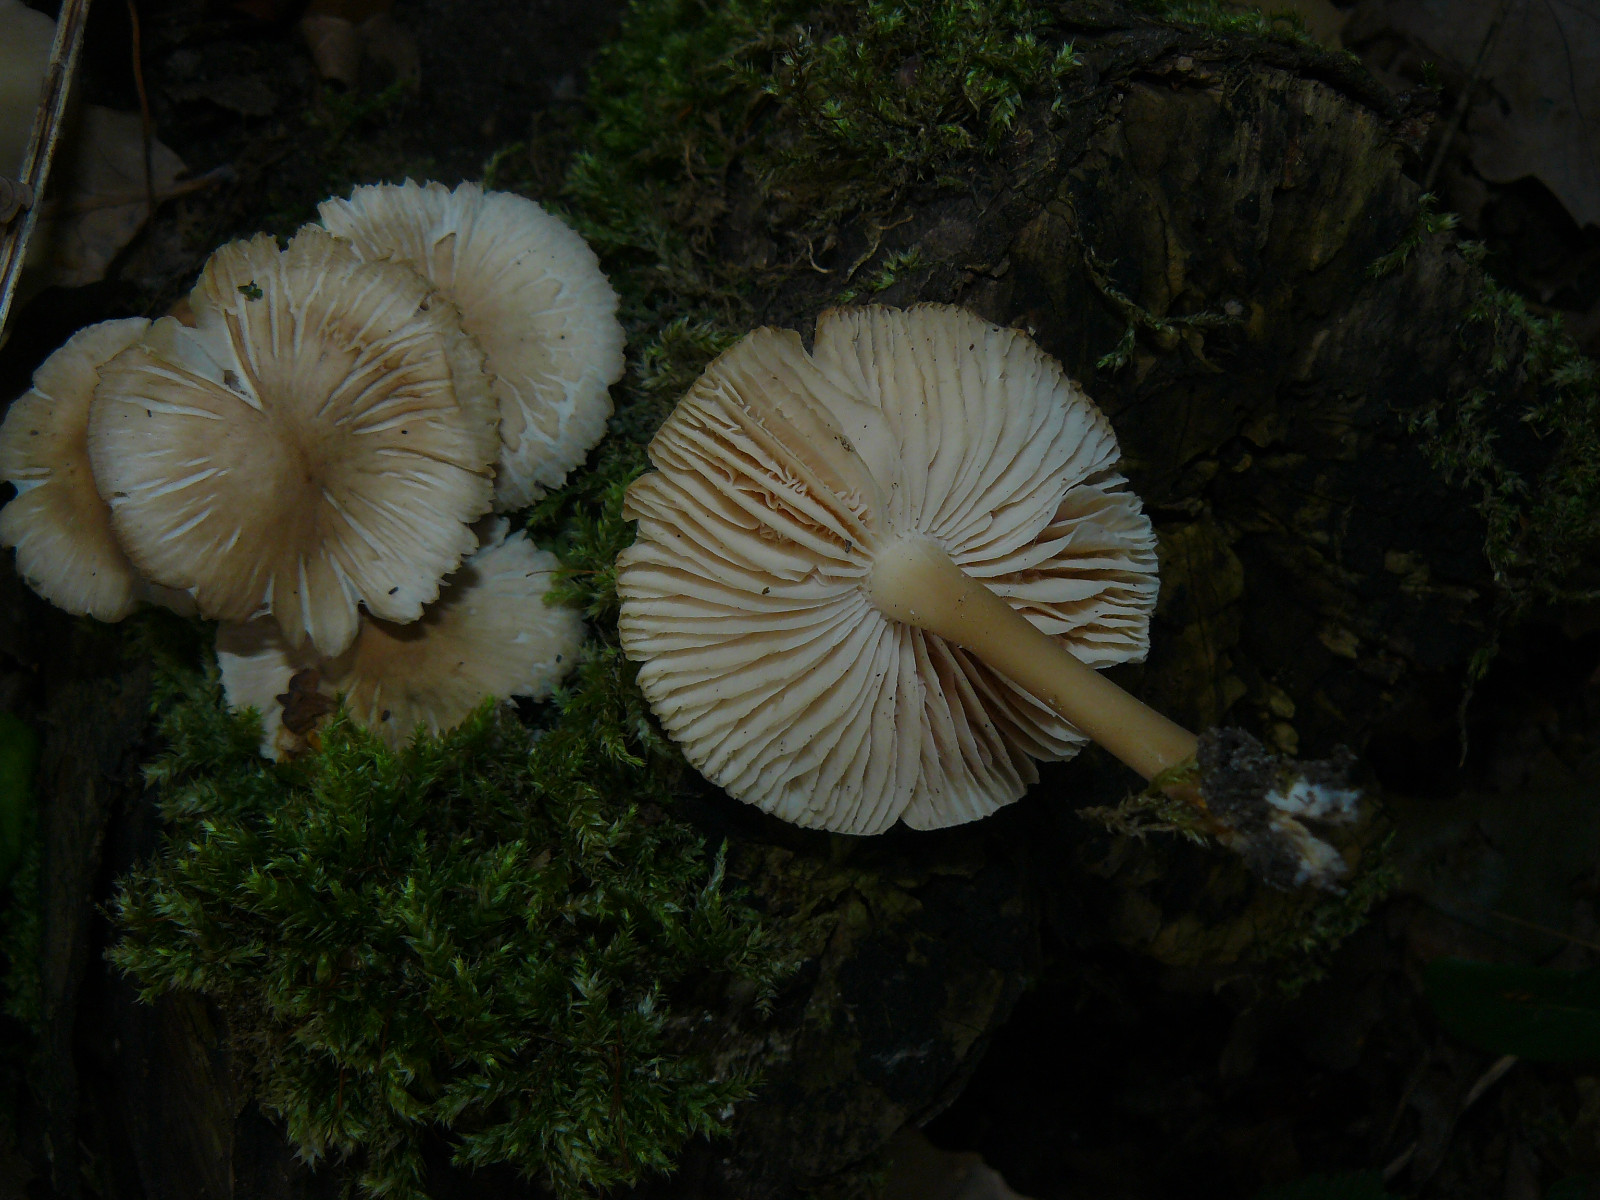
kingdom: Fungi
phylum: Basidiomycota
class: Agaricomycetes
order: Agaricales
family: Mycenaceae
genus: Mycena
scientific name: Mycena galericulata
